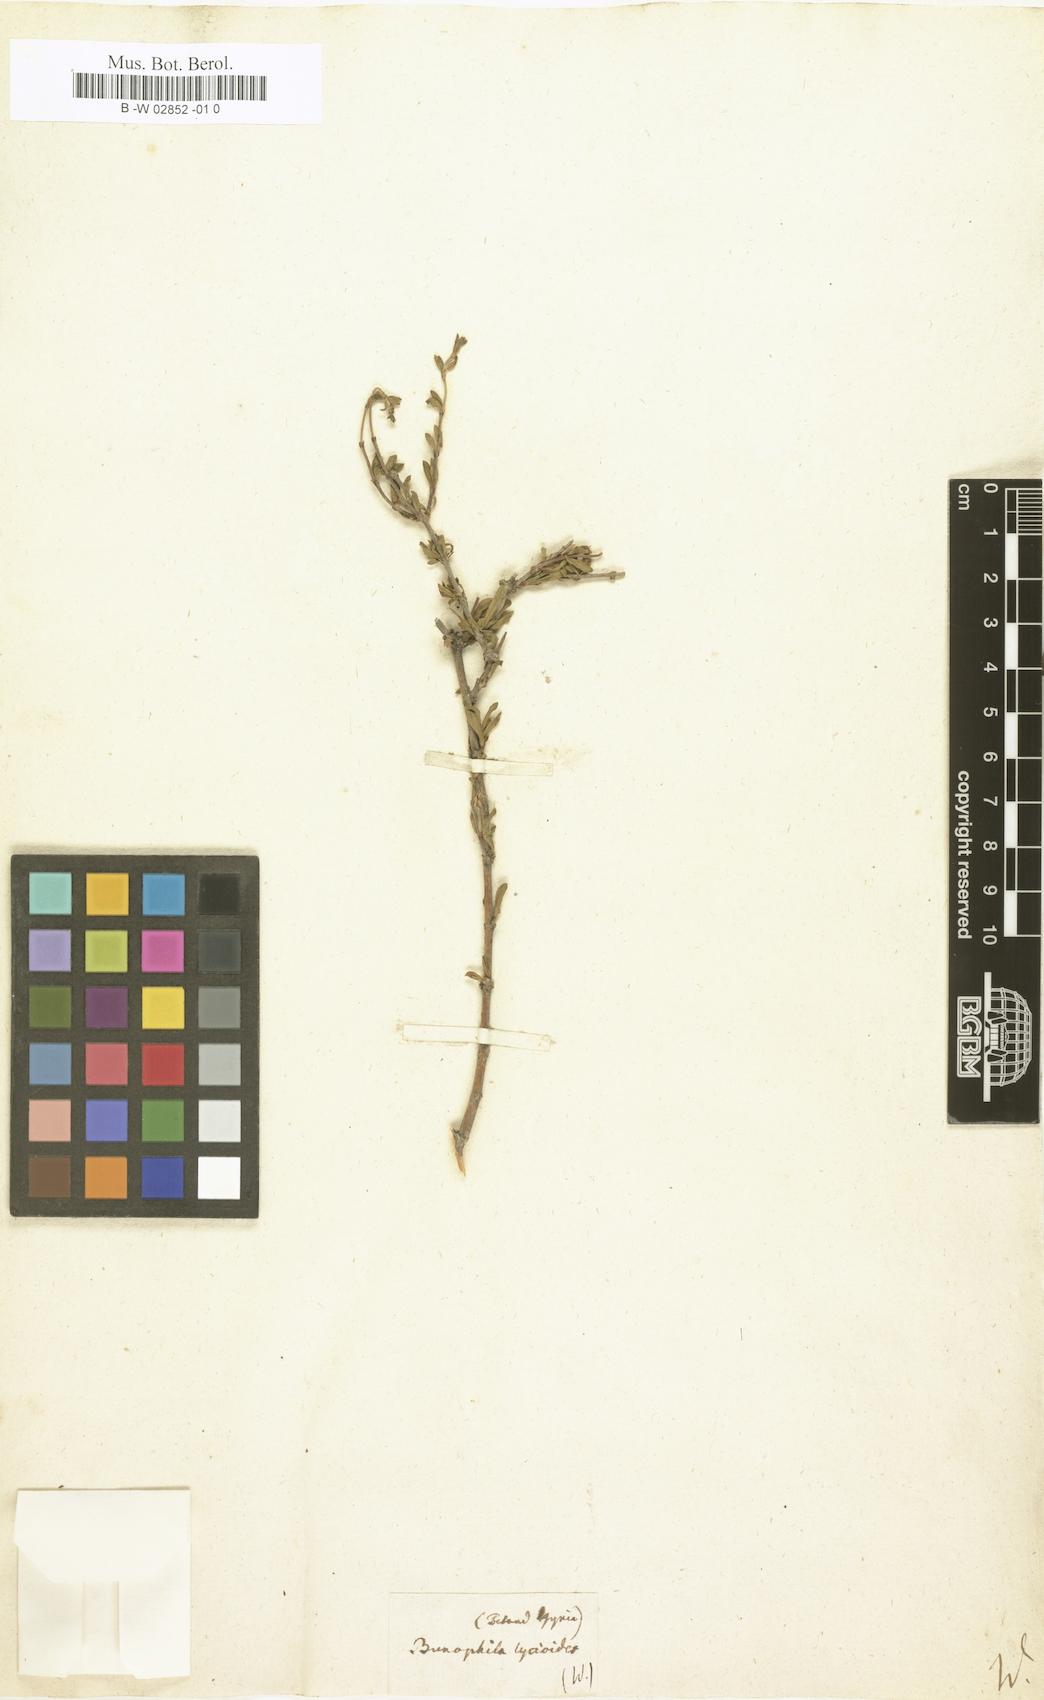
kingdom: Plantae
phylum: Tracheophyta
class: Magnoliopsida
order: Gentianales
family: Rubiaceae
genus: Machaonia
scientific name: Machaonia acuminata
